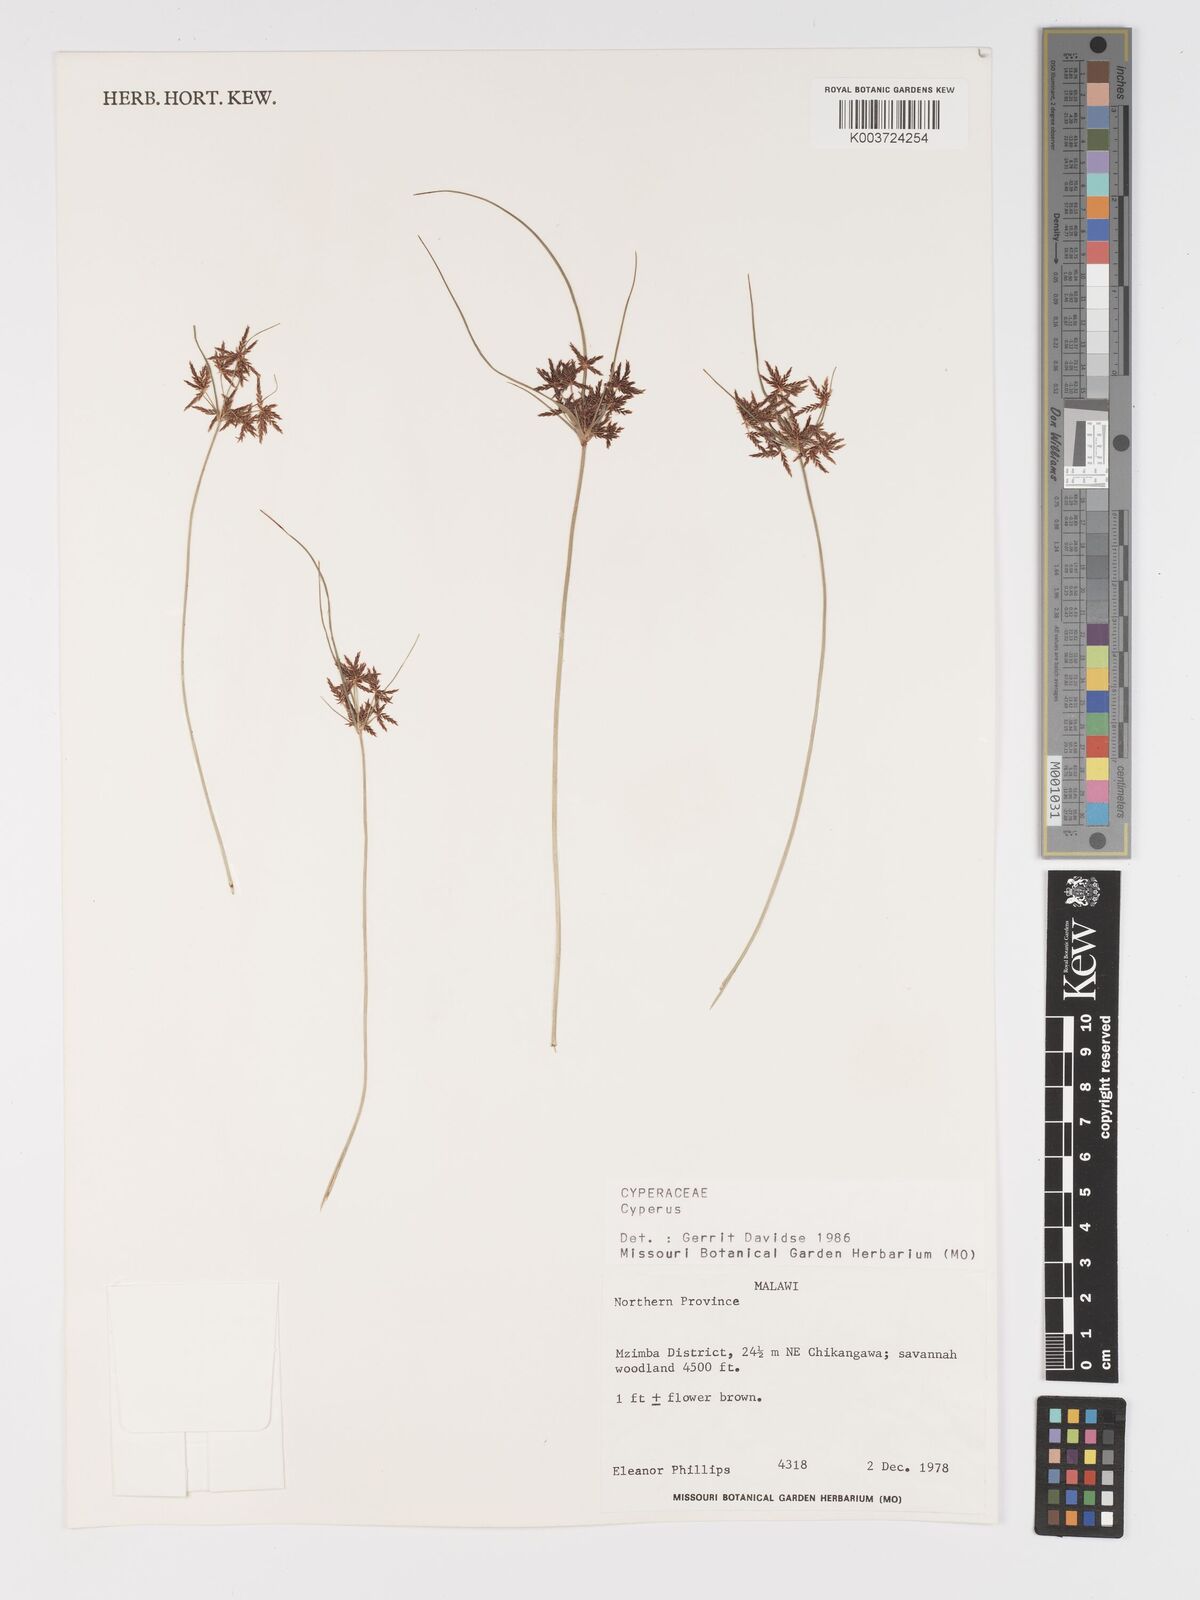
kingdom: Plantae
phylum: Tracheophyta
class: Liliopsida
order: Poales
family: Cyperaceae
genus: Cyperus
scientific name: Cyperus
